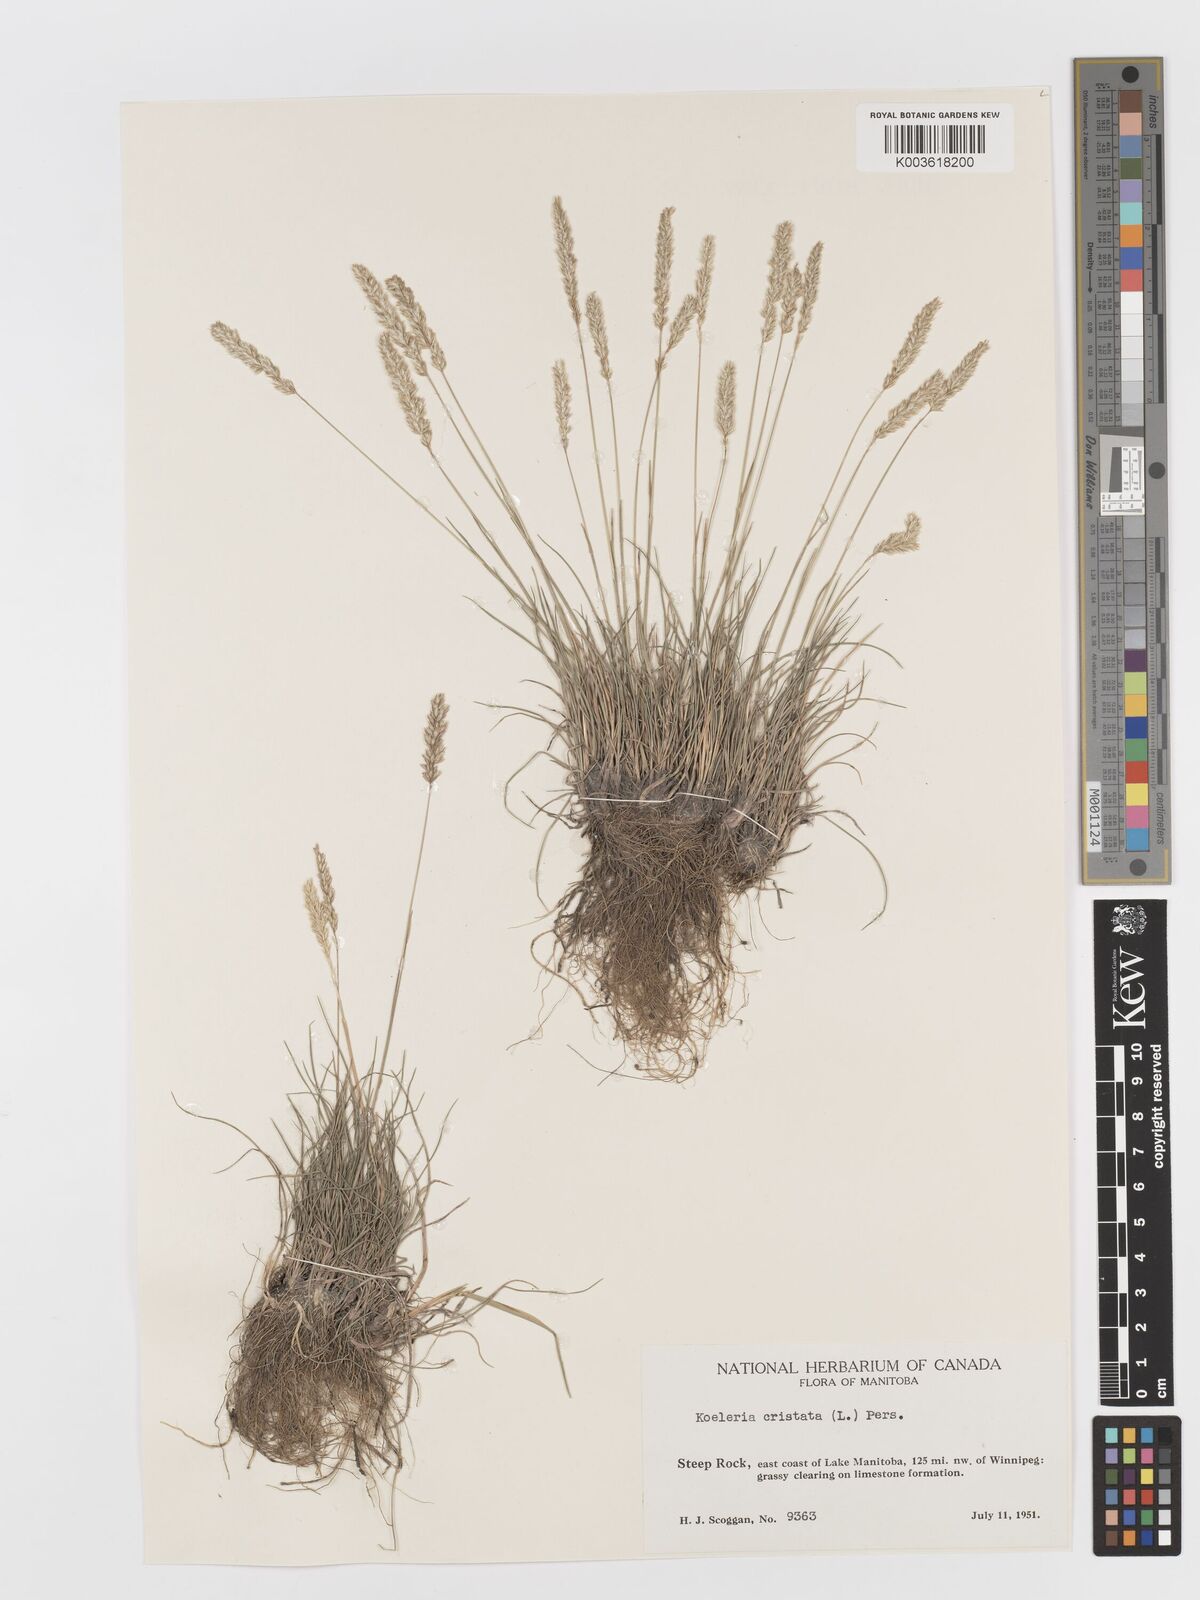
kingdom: Plantae
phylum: Tracheophyta
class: Liliopsida
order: Poales
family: Poaceae
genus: Koeleria
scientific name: Koeleria
